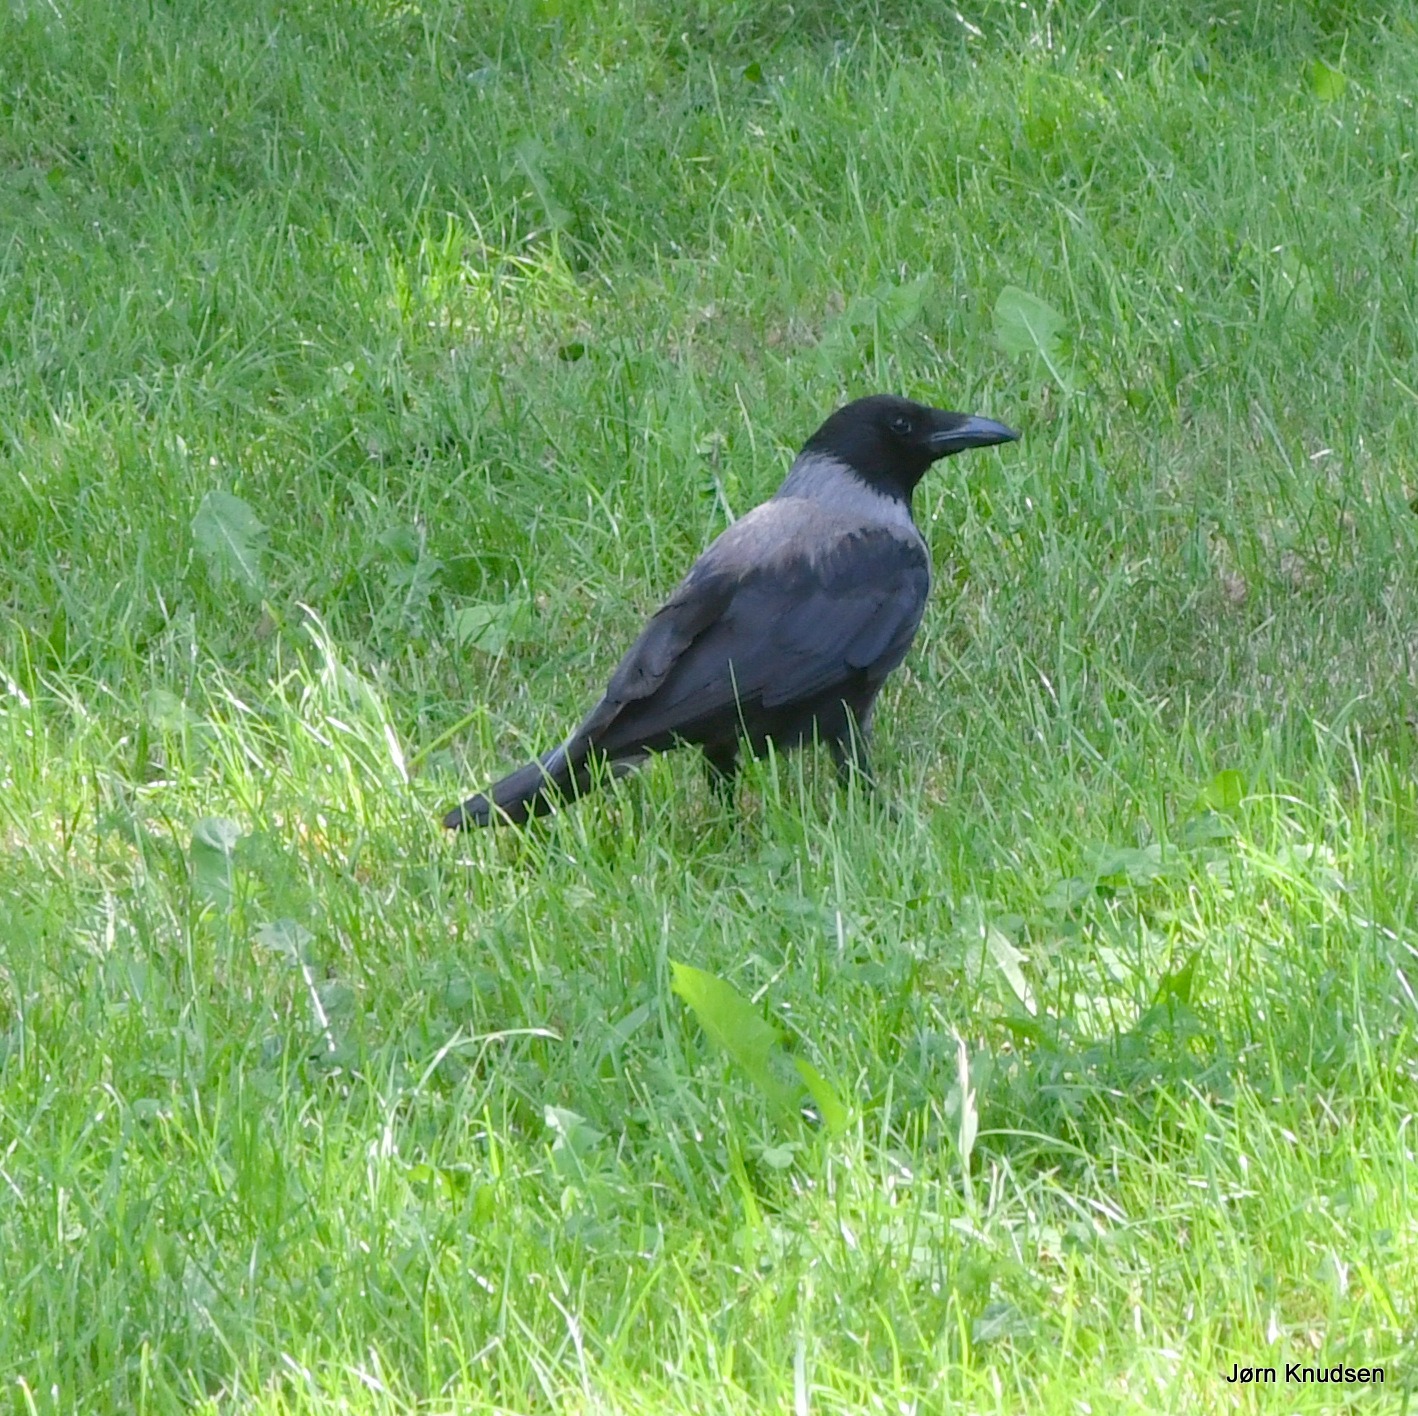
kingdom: Animalia
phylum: Chordata
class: Aves
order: Passeriformes
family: Corvidae
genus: Corvus
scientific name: Corvus cornix
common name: Gråkrage
